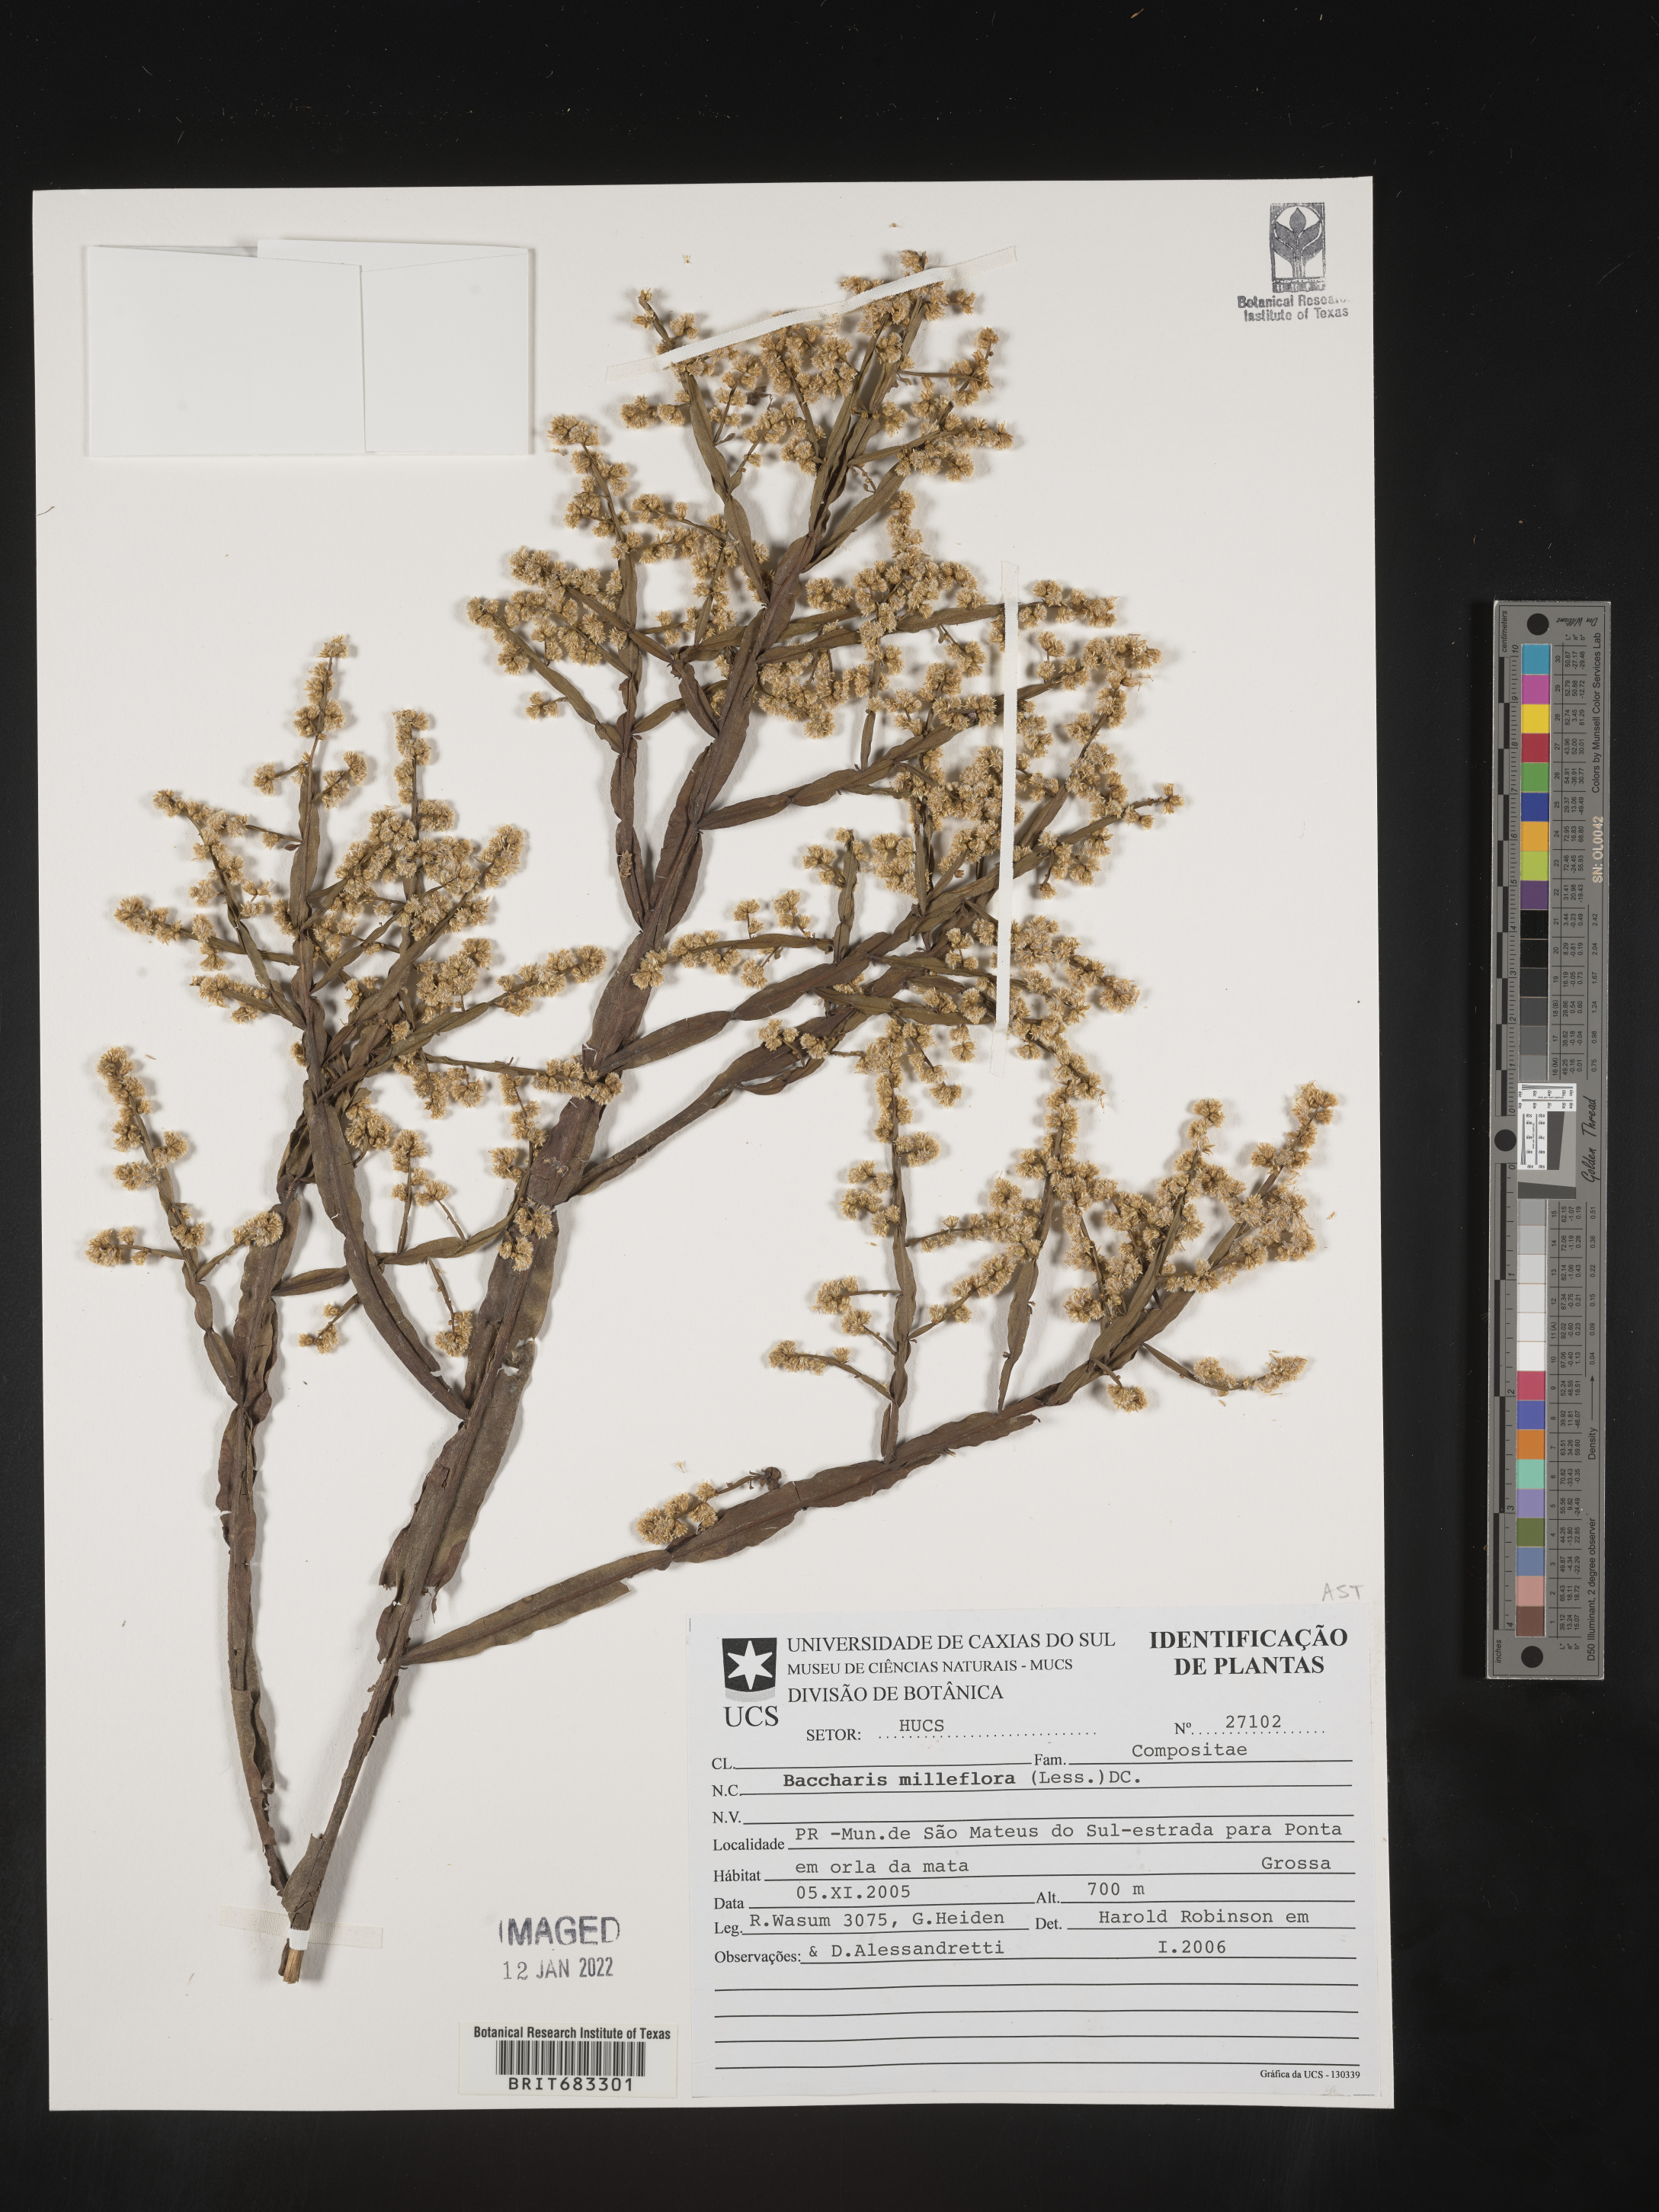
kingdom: Plantae
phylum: Tracheophyta
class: Magnoliopsida
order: Asterales
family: Asteraceae
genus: Baccharis
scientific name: Baccharis
